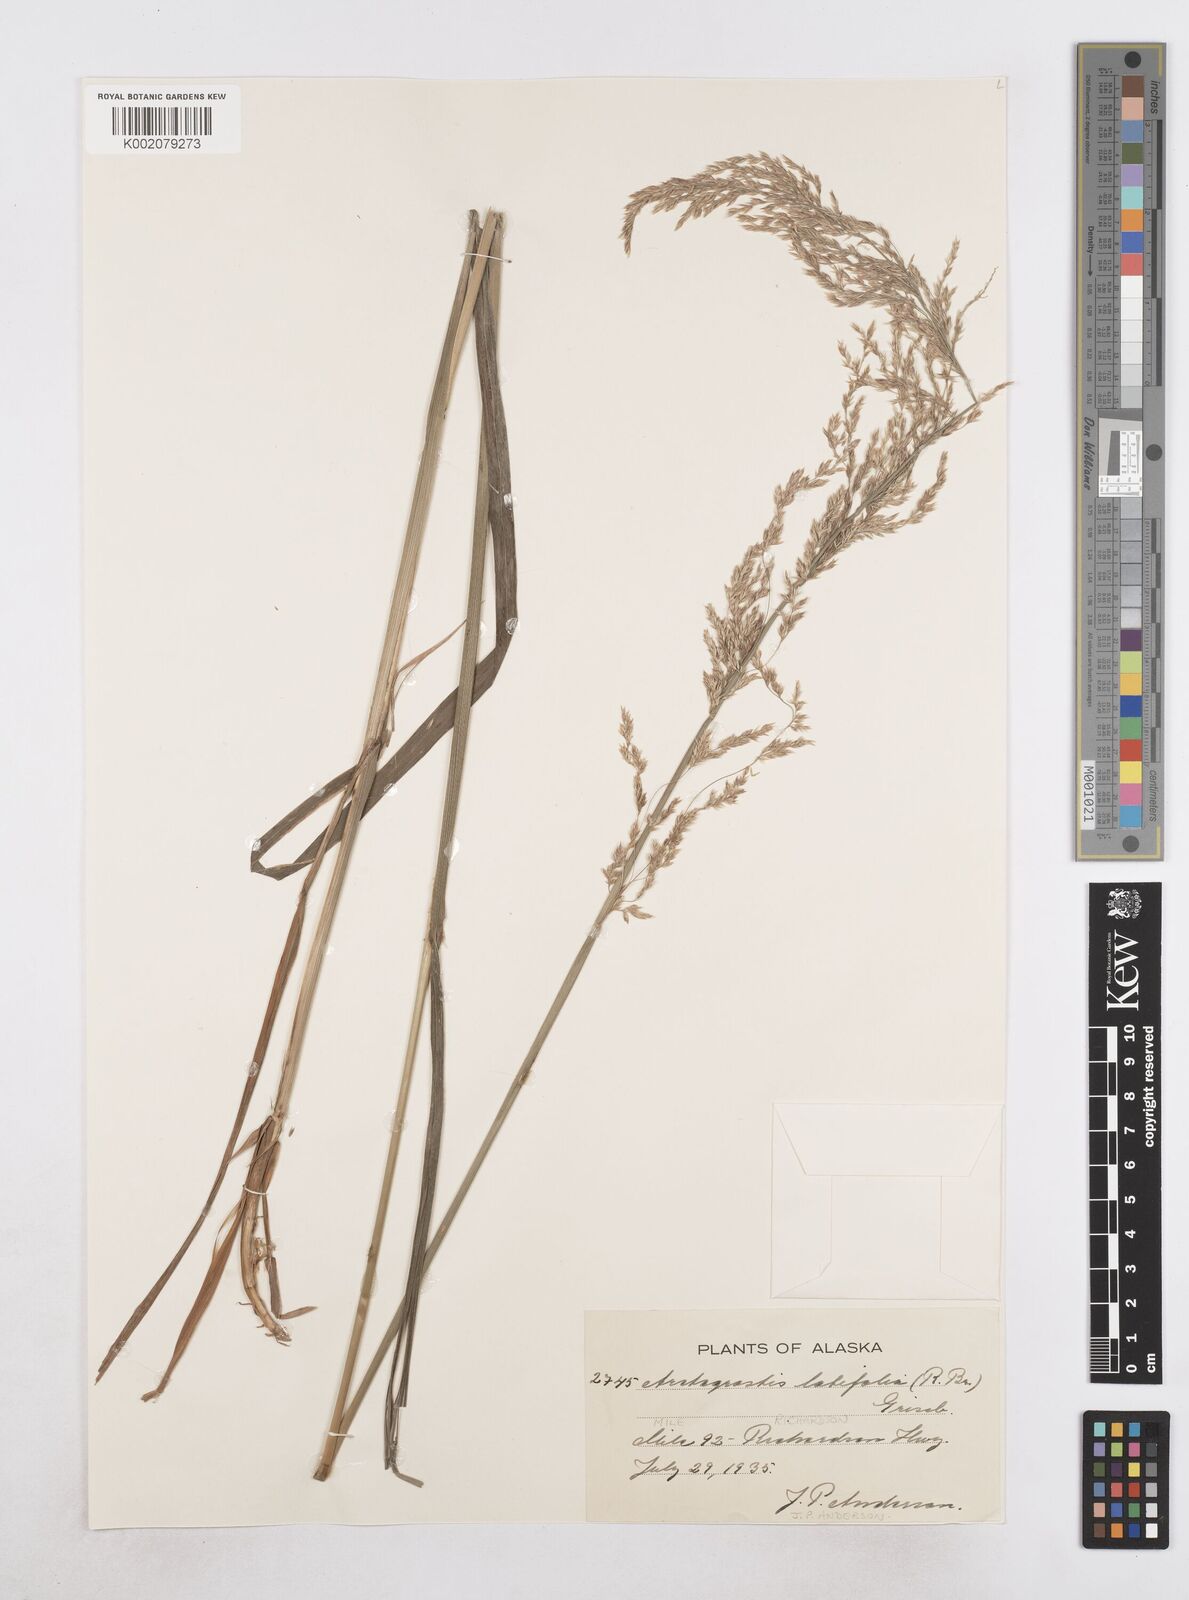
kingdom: Plantae
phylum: Tracheophyta
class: Liliopsida
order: Poales
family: Poaceae
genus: Arctagrostis
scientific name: Arctagrostis latifolia
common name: Arctic grass
